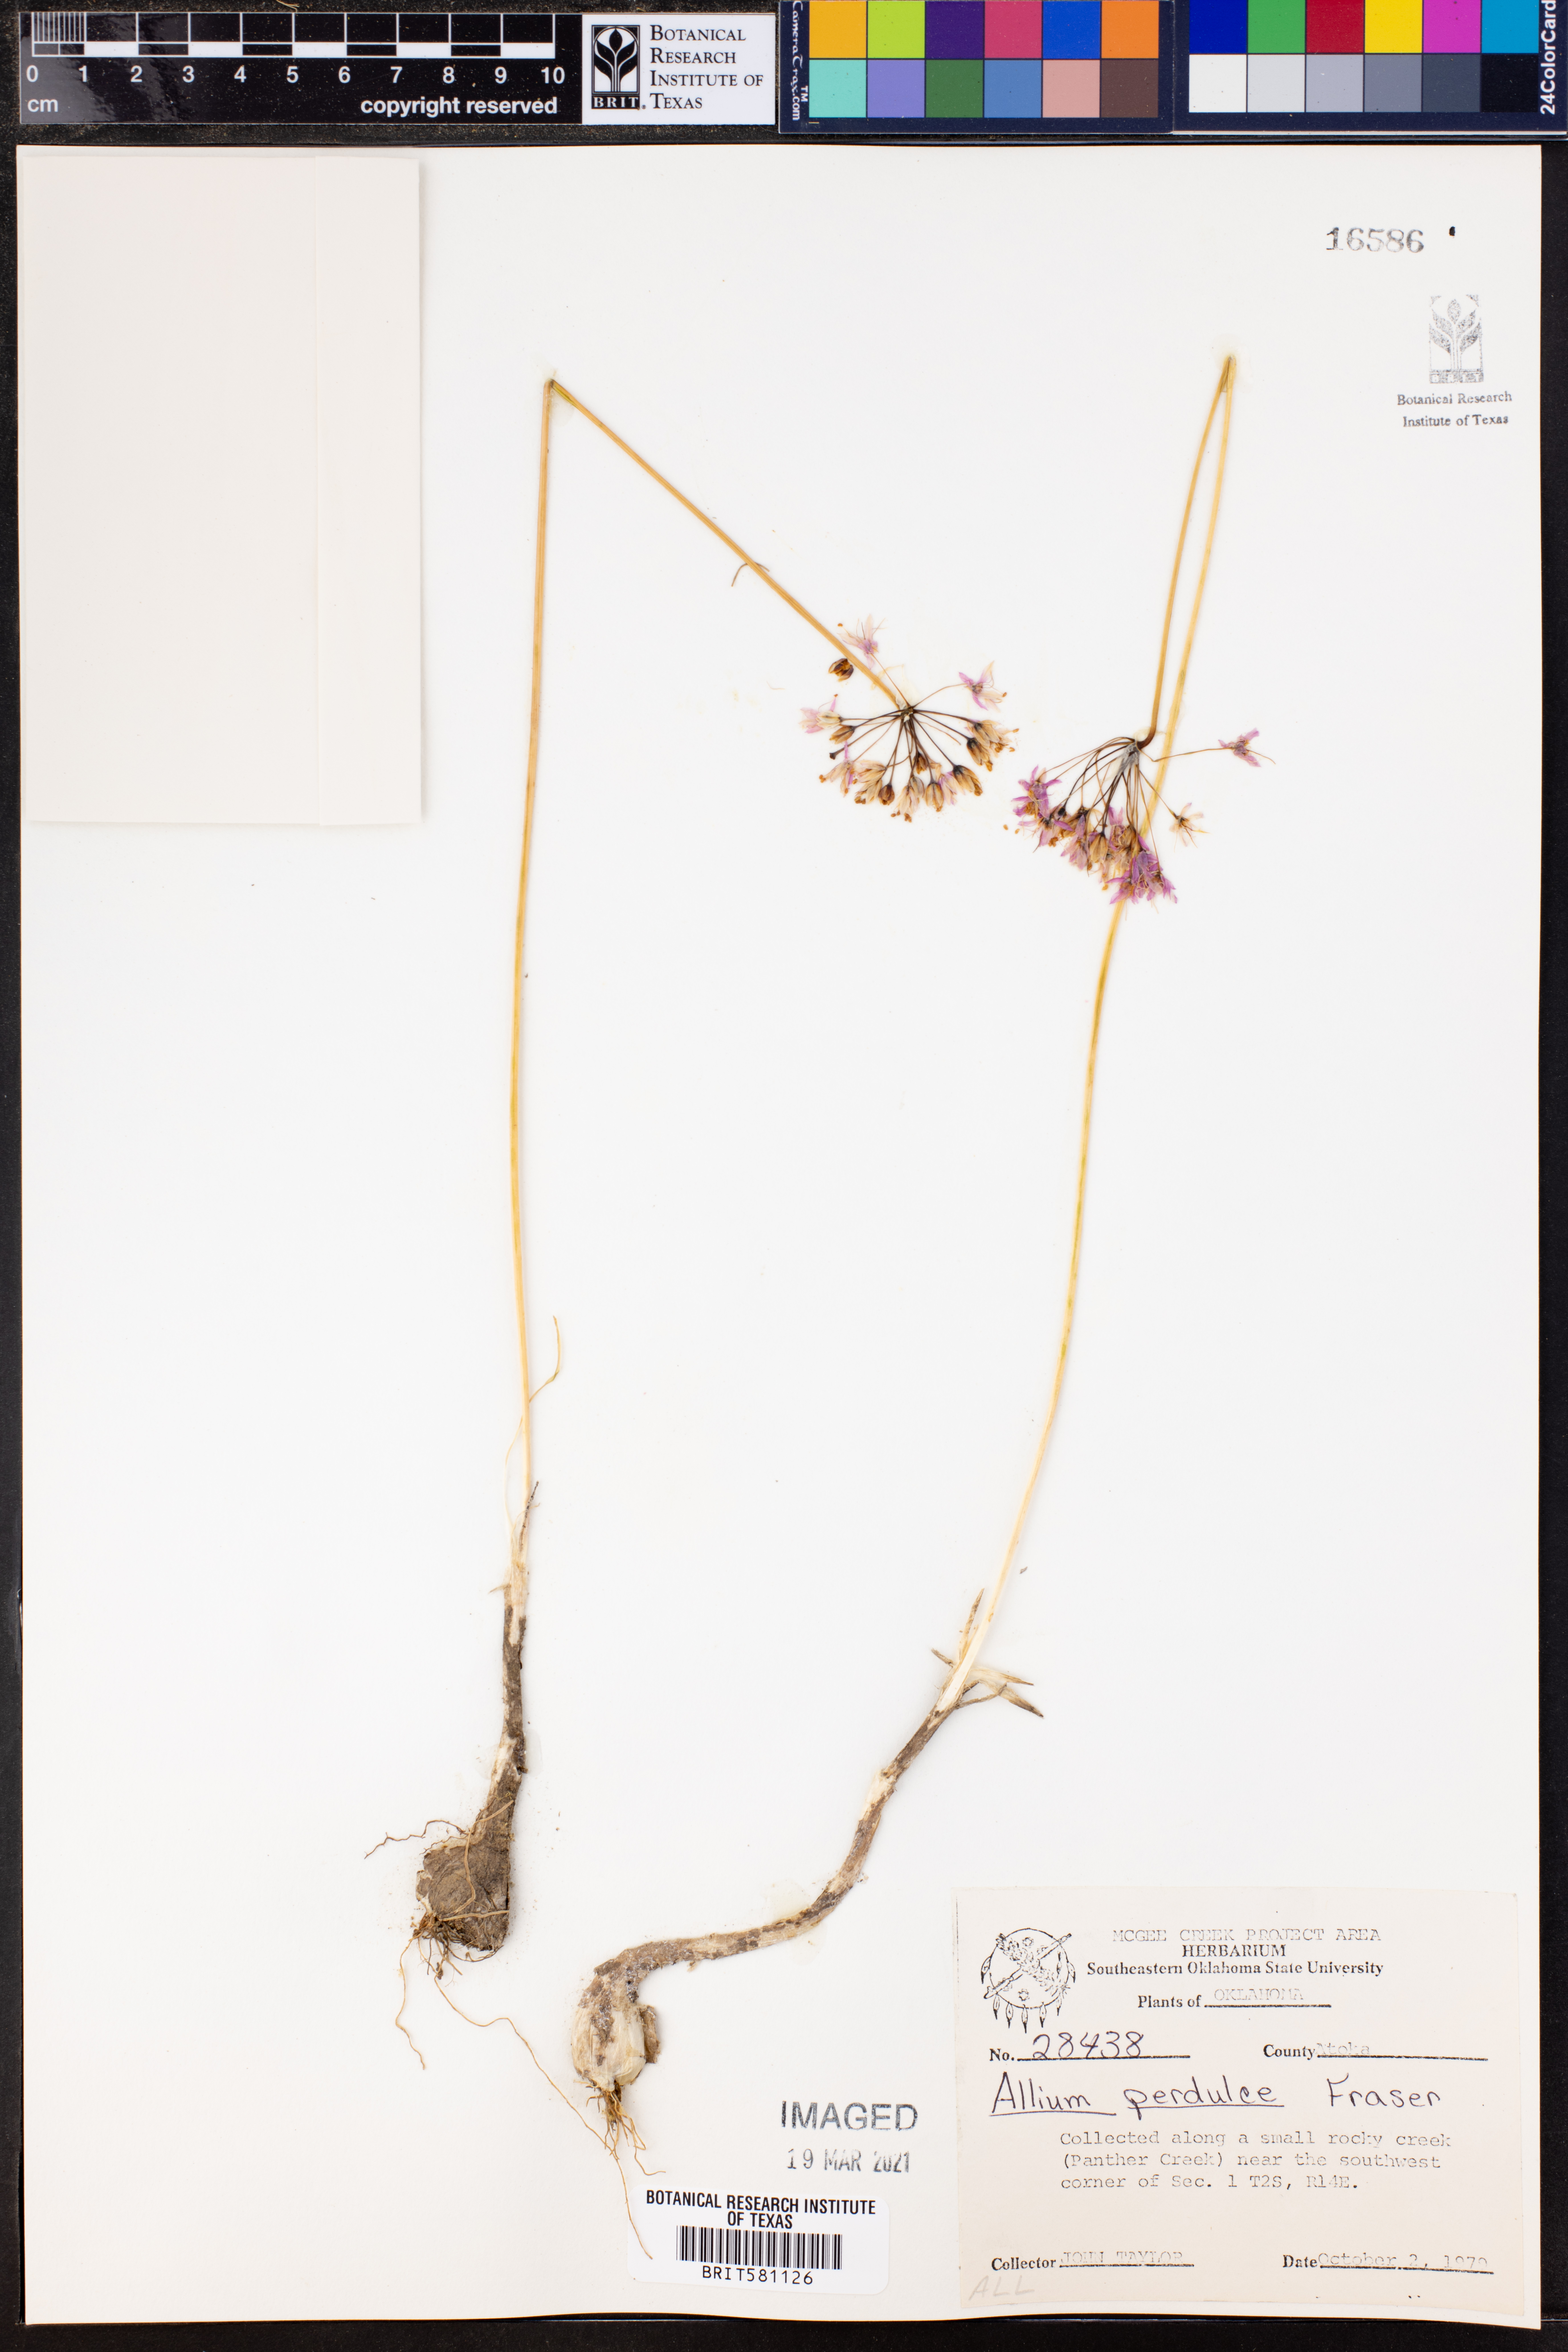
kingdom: Plantae
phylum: Tracheophyta
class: Liliopsida
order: Asparagales
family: Amaryllidaceae
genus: Allium
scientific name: Allium perdulce
